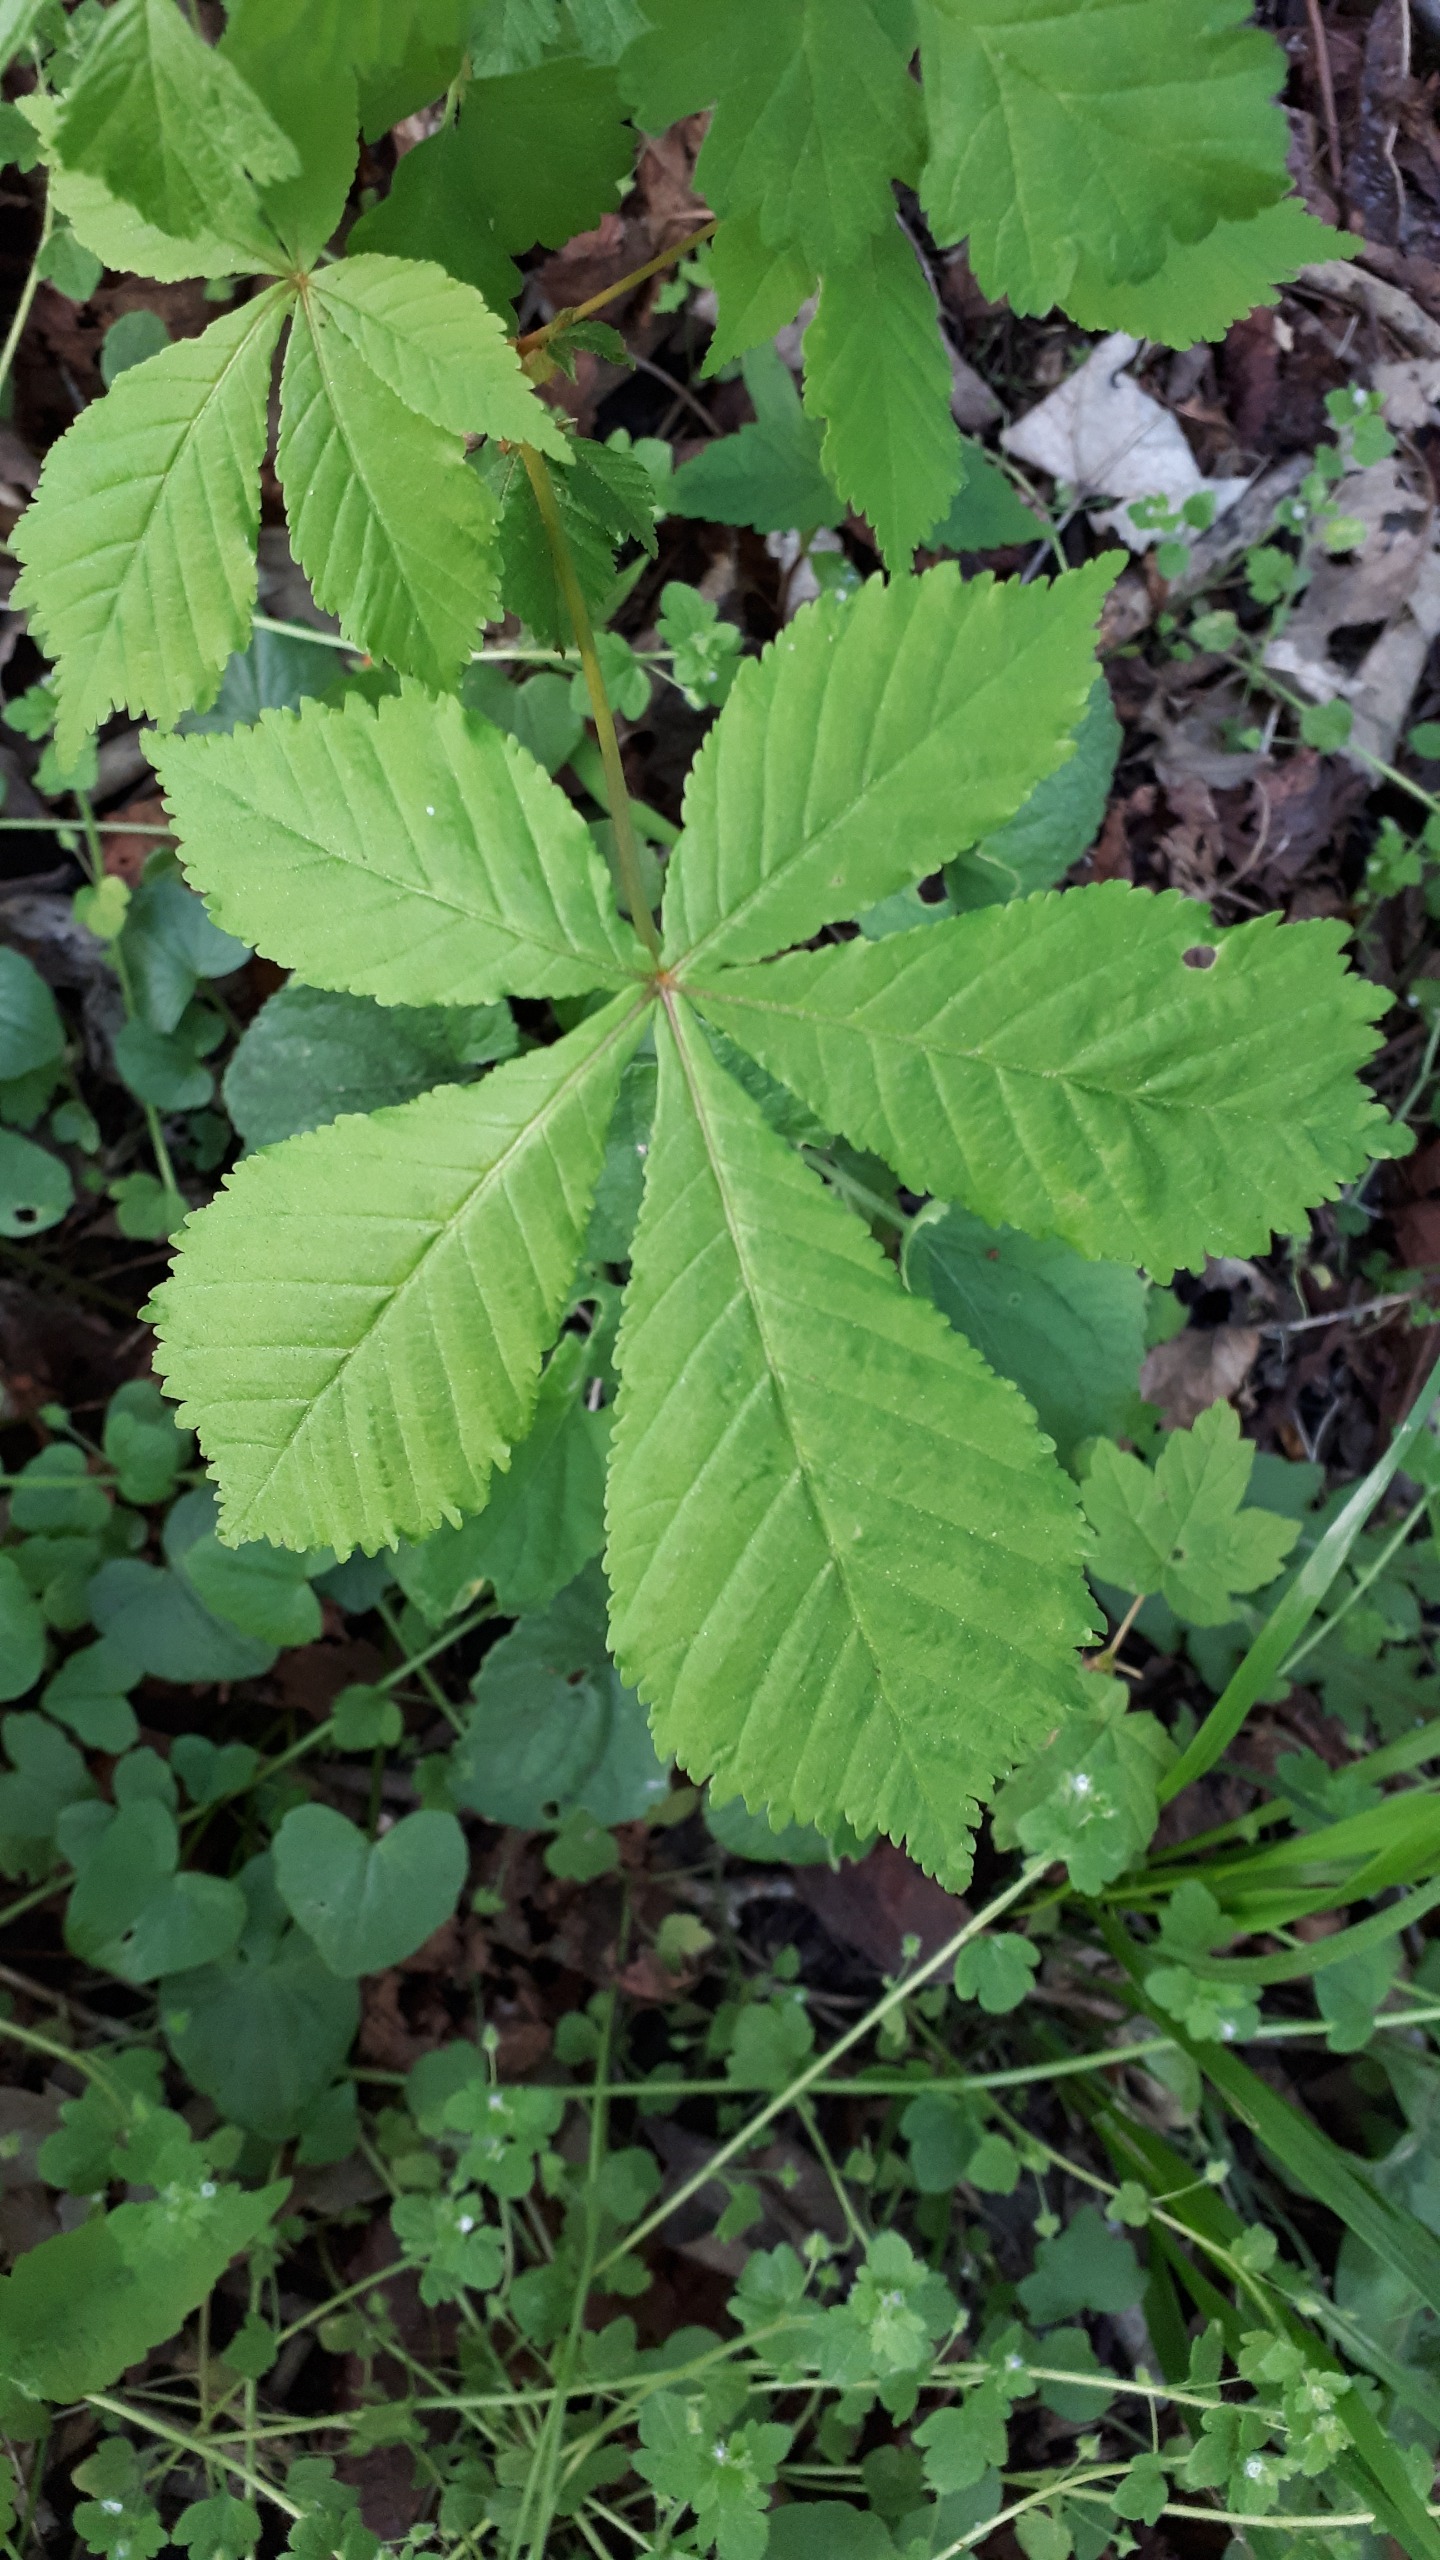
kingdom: Plantae
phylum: Tracheophyta
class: Magnoliopsida
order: Sapindales
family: Sapindaceae
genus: Aesculus
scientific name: Aesculus hippocastanum
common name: Hestekastanie
